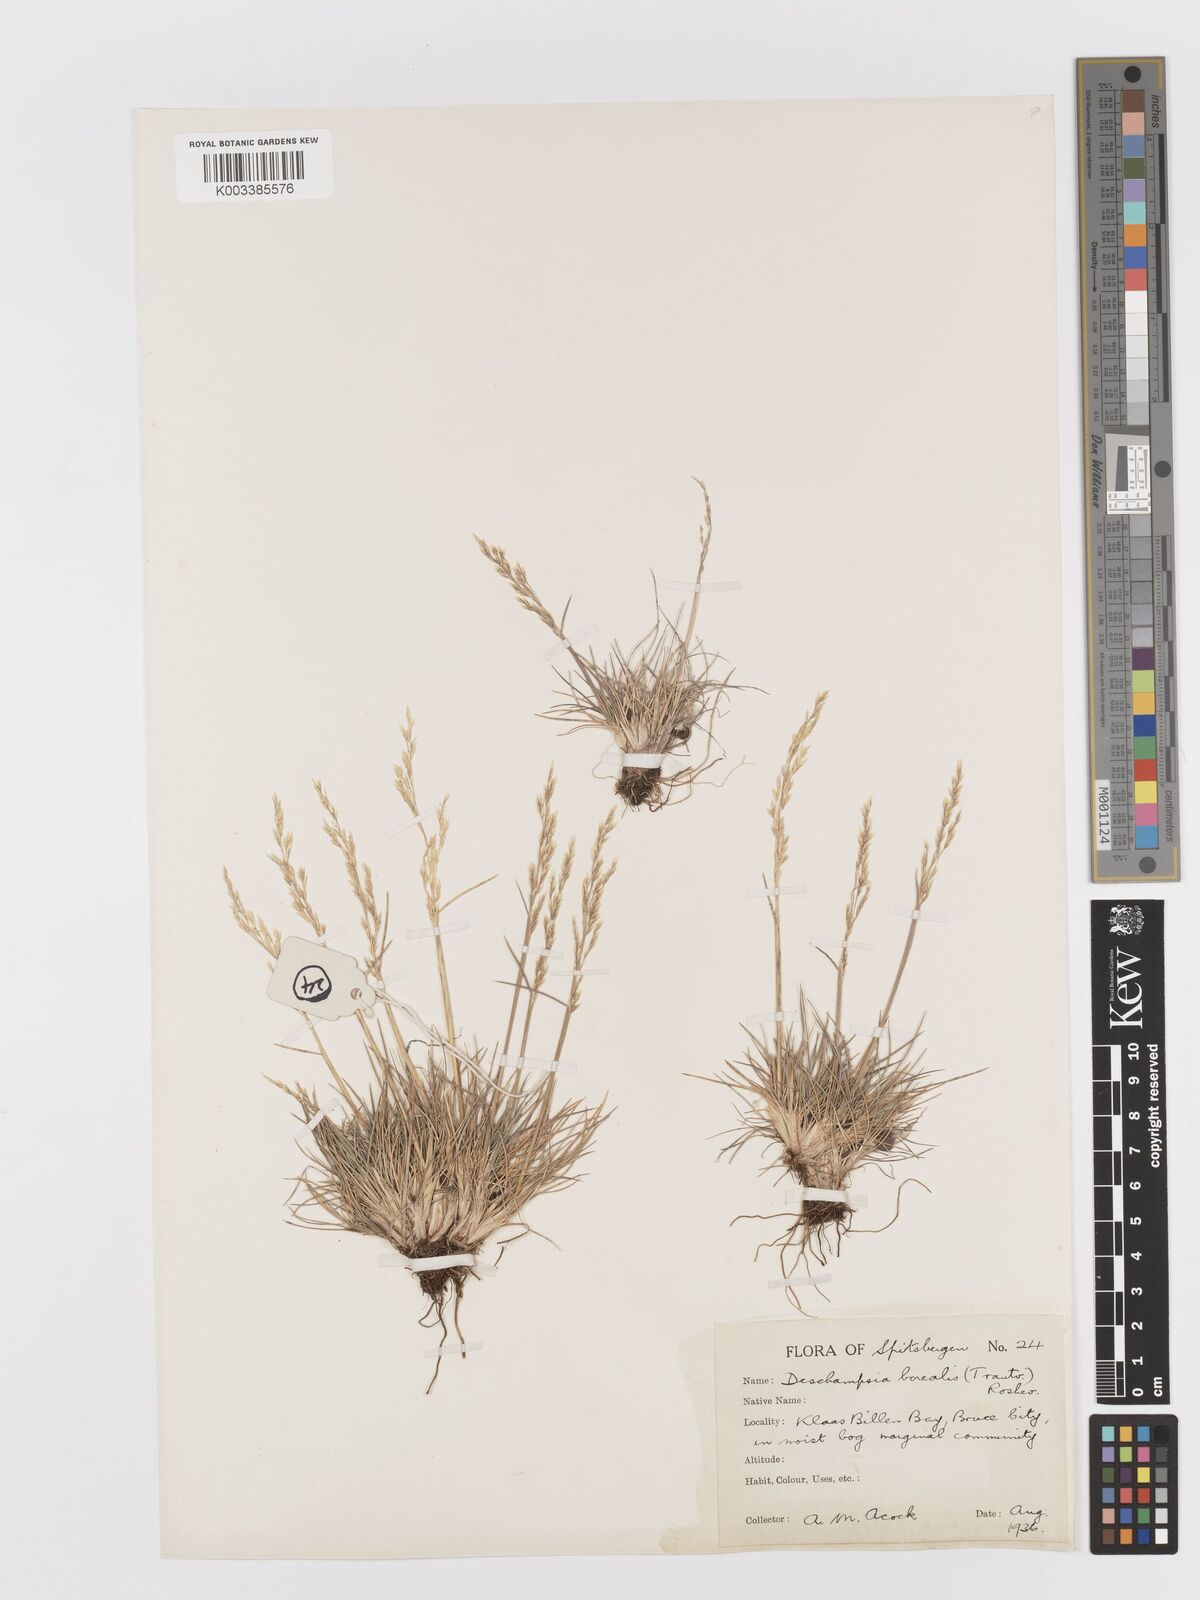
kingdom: Plantae
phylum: Tracheophyta
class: Liliopsida
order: Poales
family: Poaceae
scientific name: Poaceae
